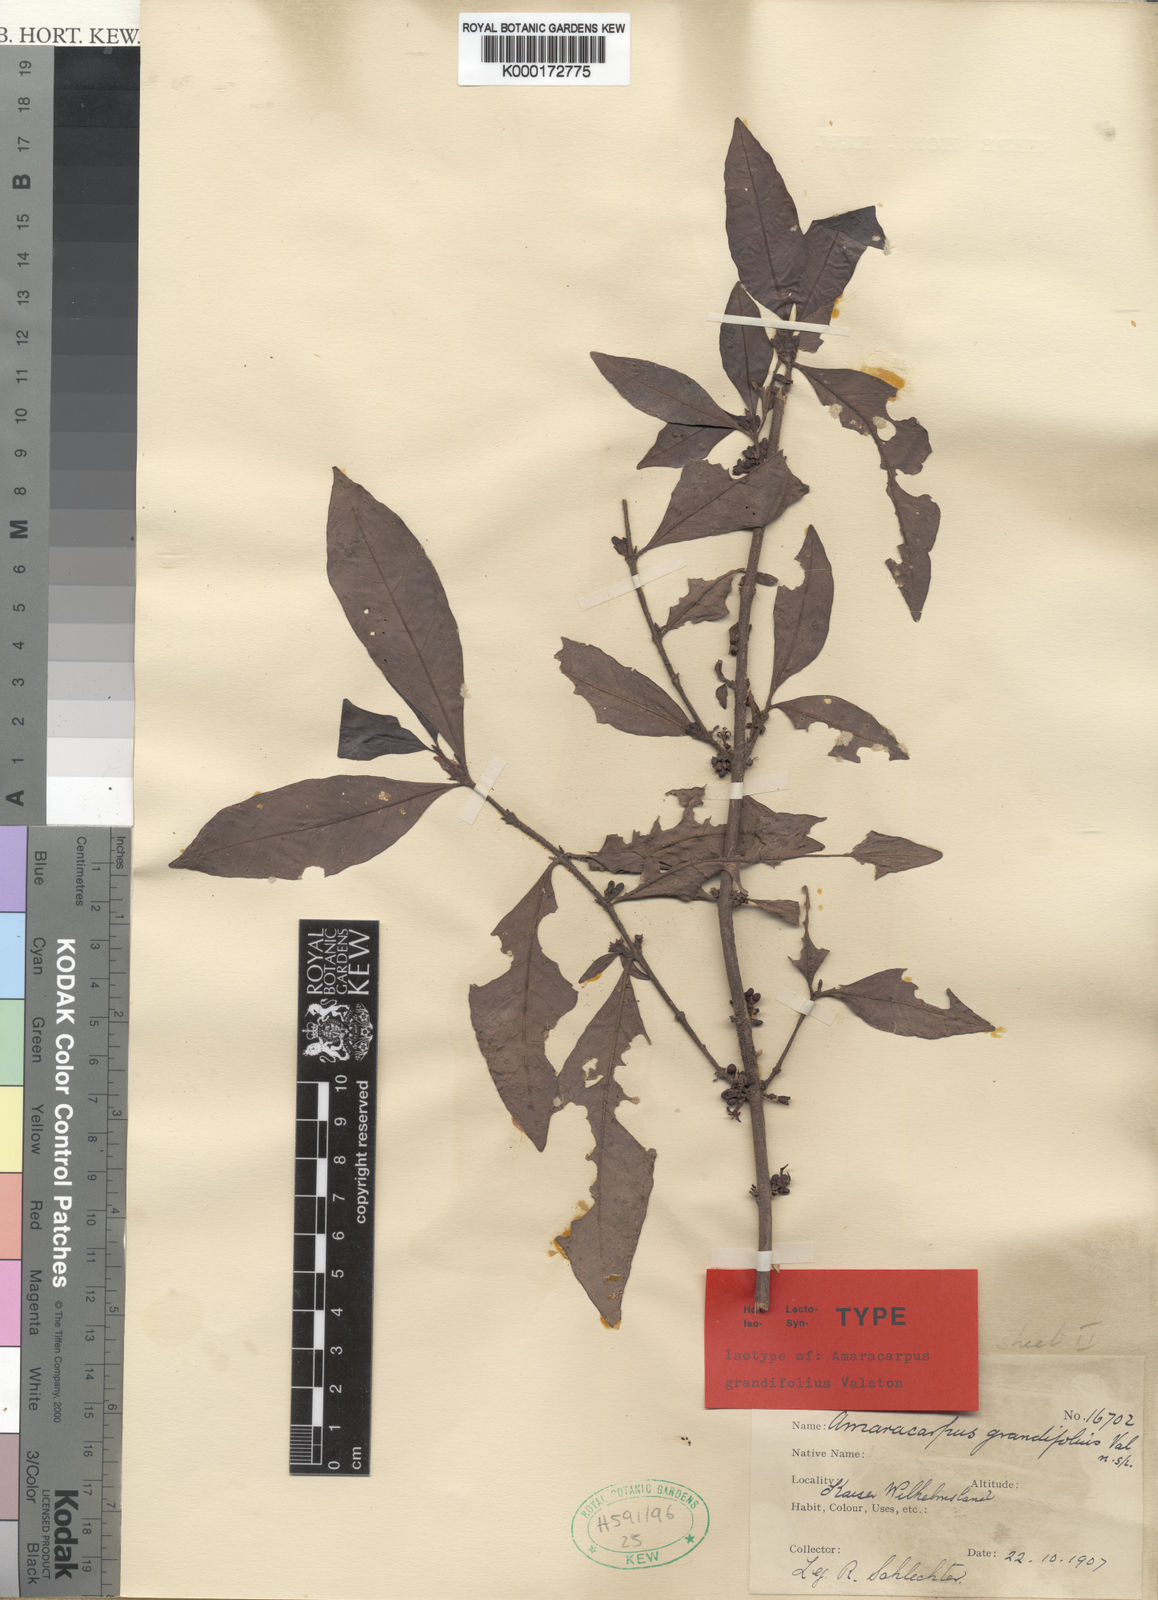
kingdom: Plantae
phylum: Tracheophyta
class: Magnoliopsida
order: Gentianales
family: Rubiaceae
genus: Amaracarpus
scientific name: Amaracarpus grandifolius
